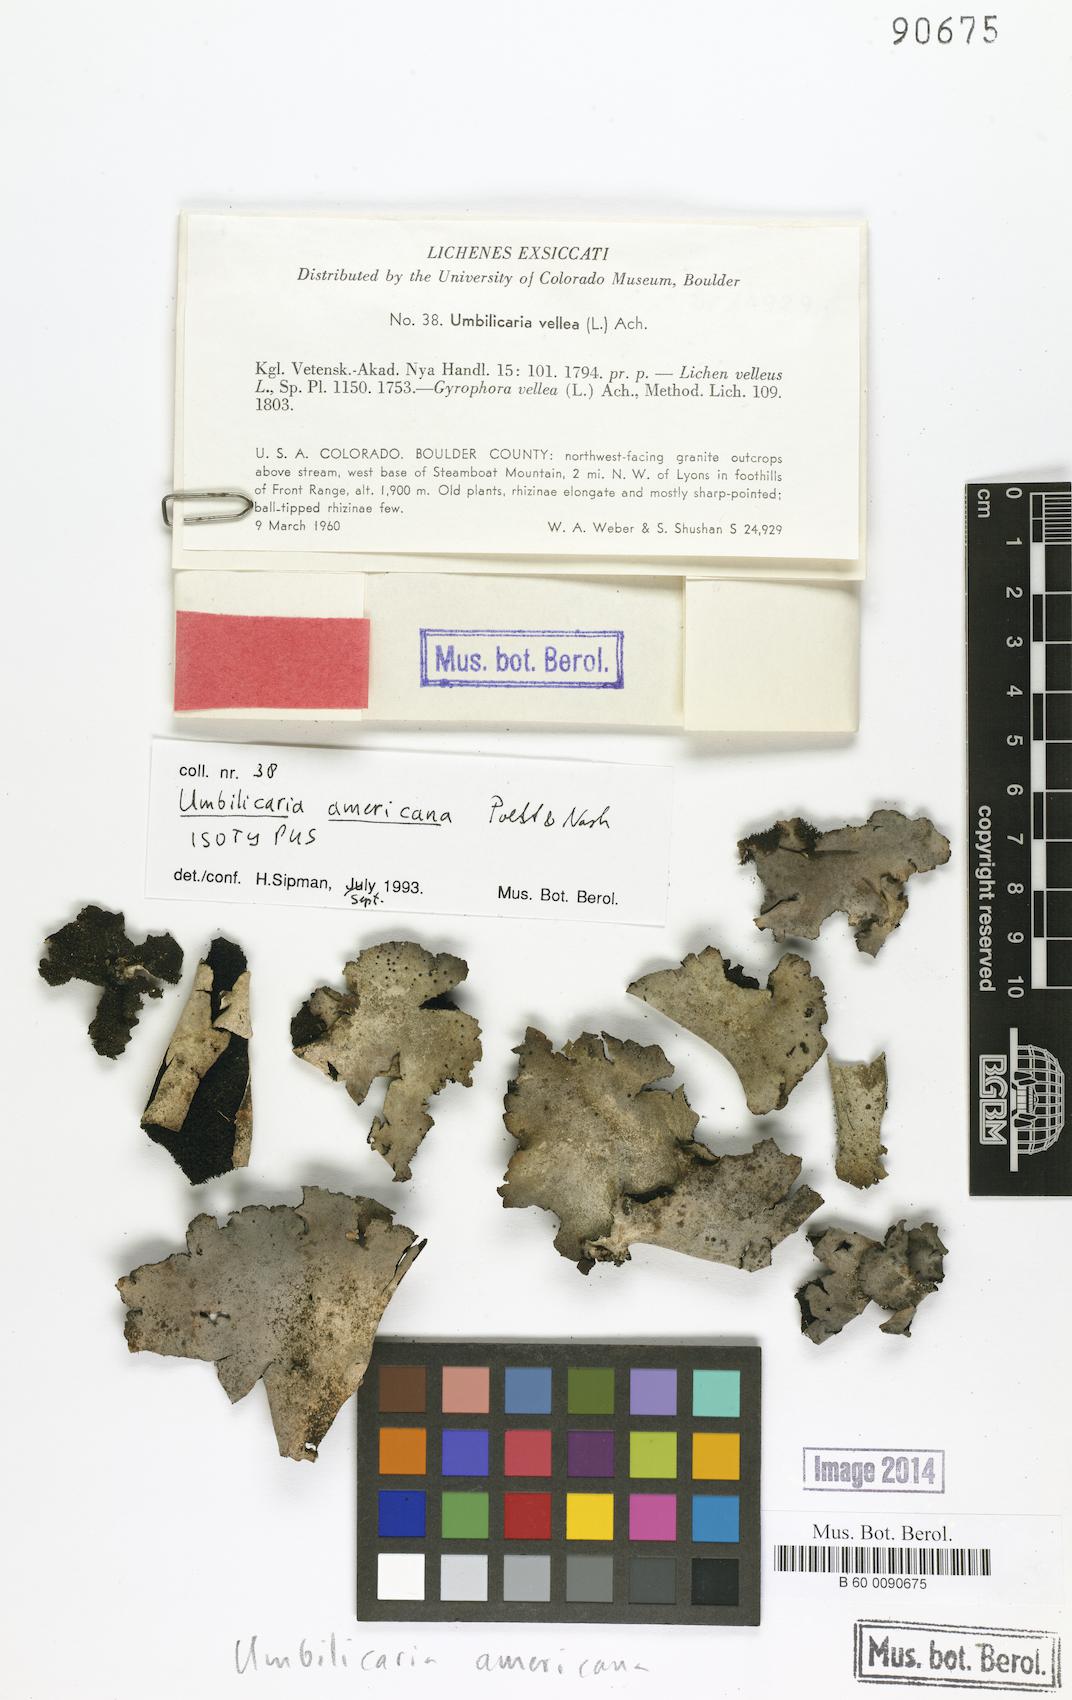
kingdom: Fungi
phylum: Ascomycota
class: Lecanoromycetes
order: Umbilicariales
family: Umbilicariaceae
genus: Umbilicaria
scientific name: Umbilicaria americana
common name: Frosted rock tripe
